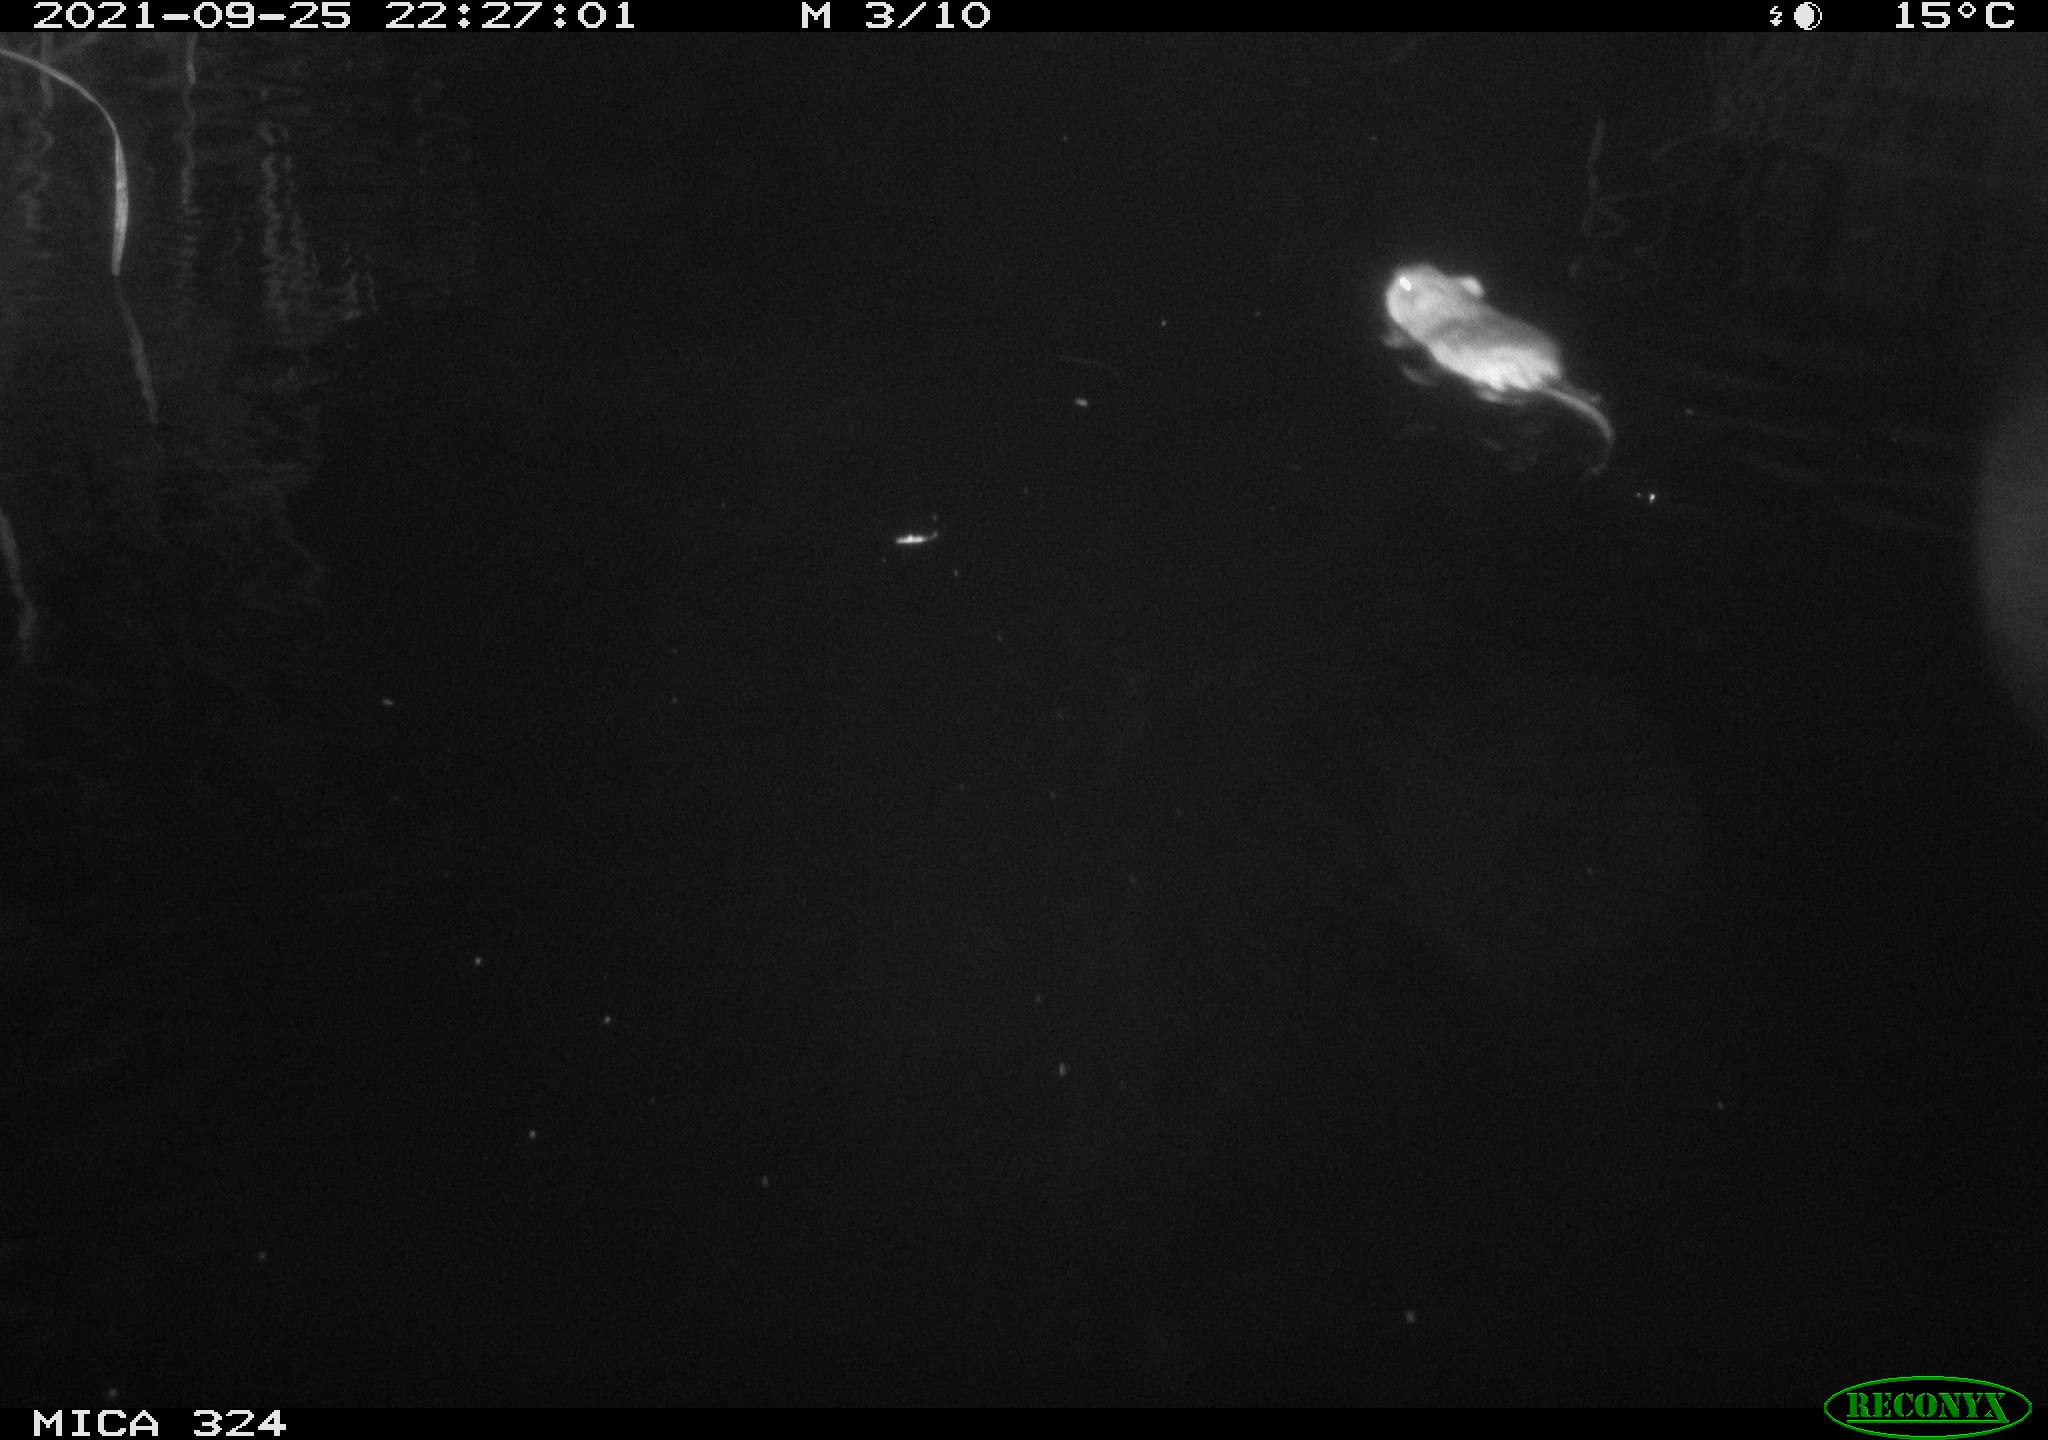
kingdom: Animalia
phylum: Chordata
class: Mammalia
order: Rodentia
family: Cricetidae
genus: Ondatra
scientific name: Ondatra zibethicus
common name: Muskrat
